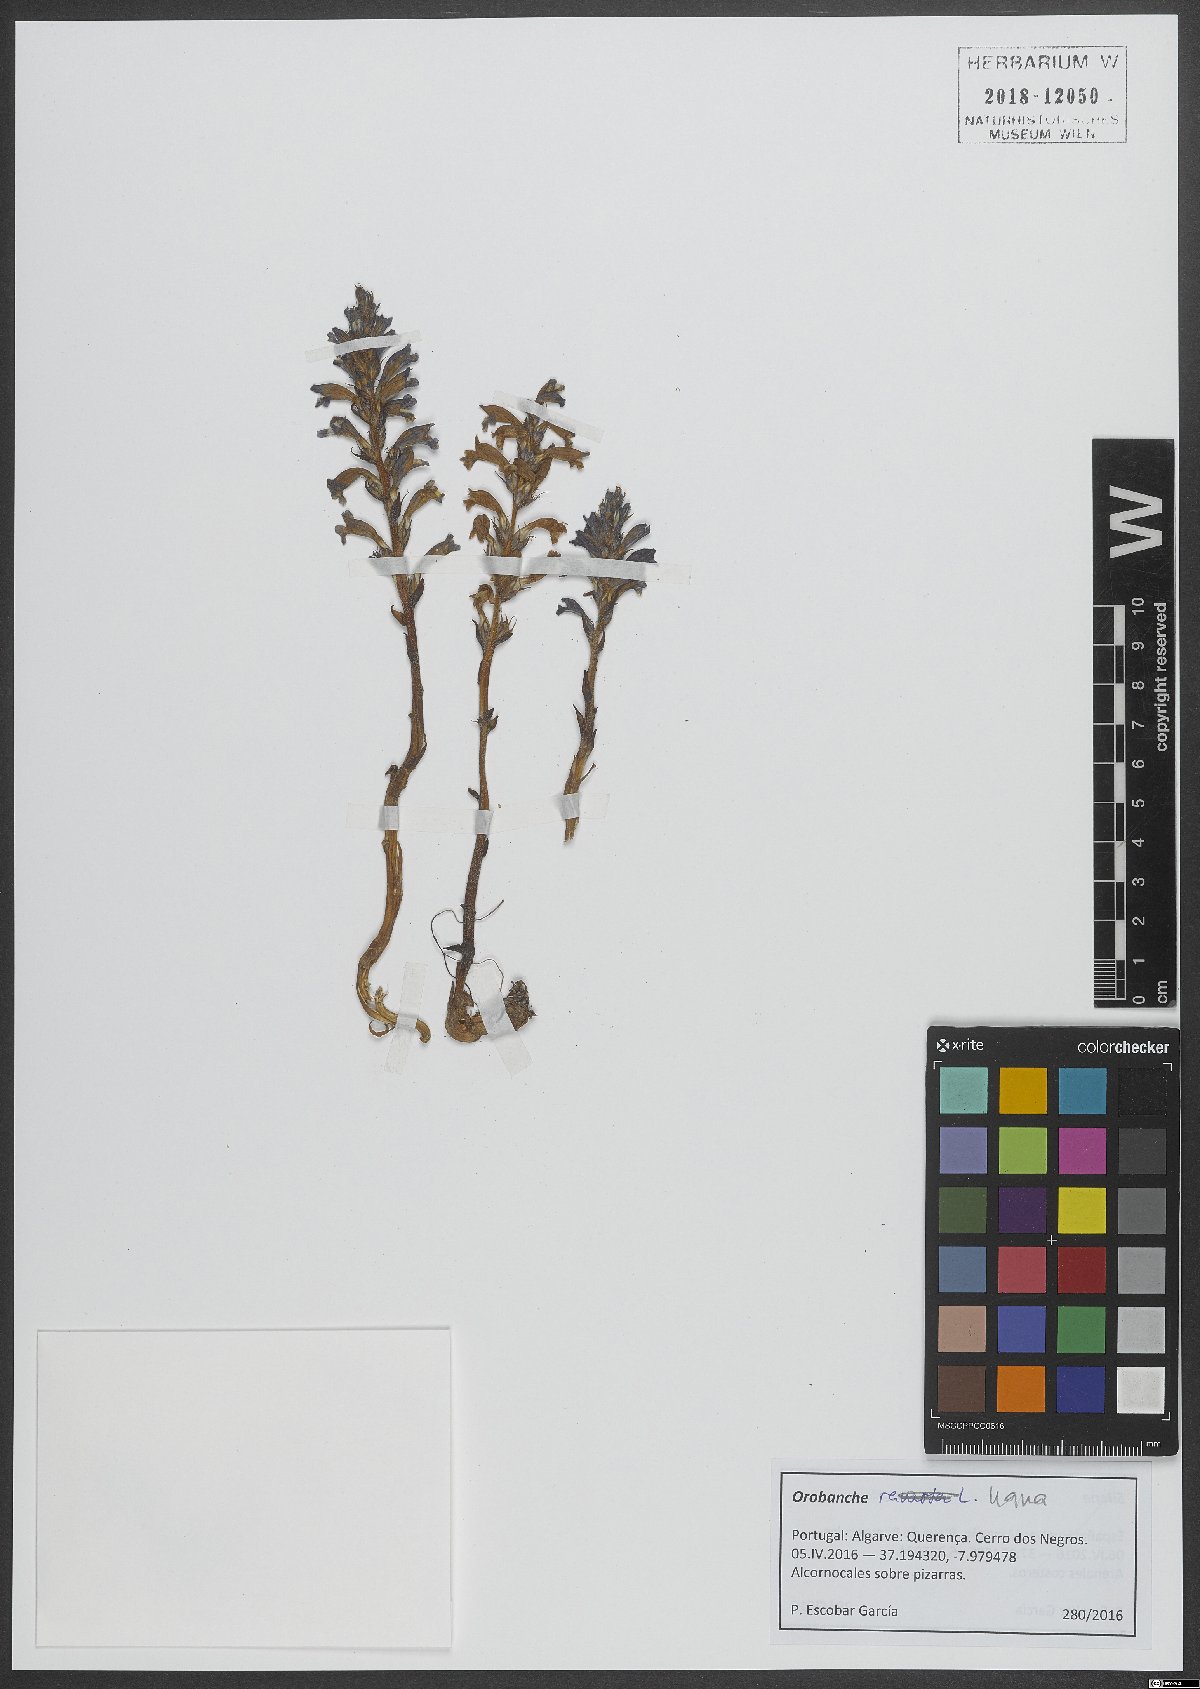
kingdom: Plantae
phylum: Tracheophyta
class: Magnoliopsida
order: Lamiales
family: Orobanchaceae
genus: Orobanche
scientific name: Orobanche
